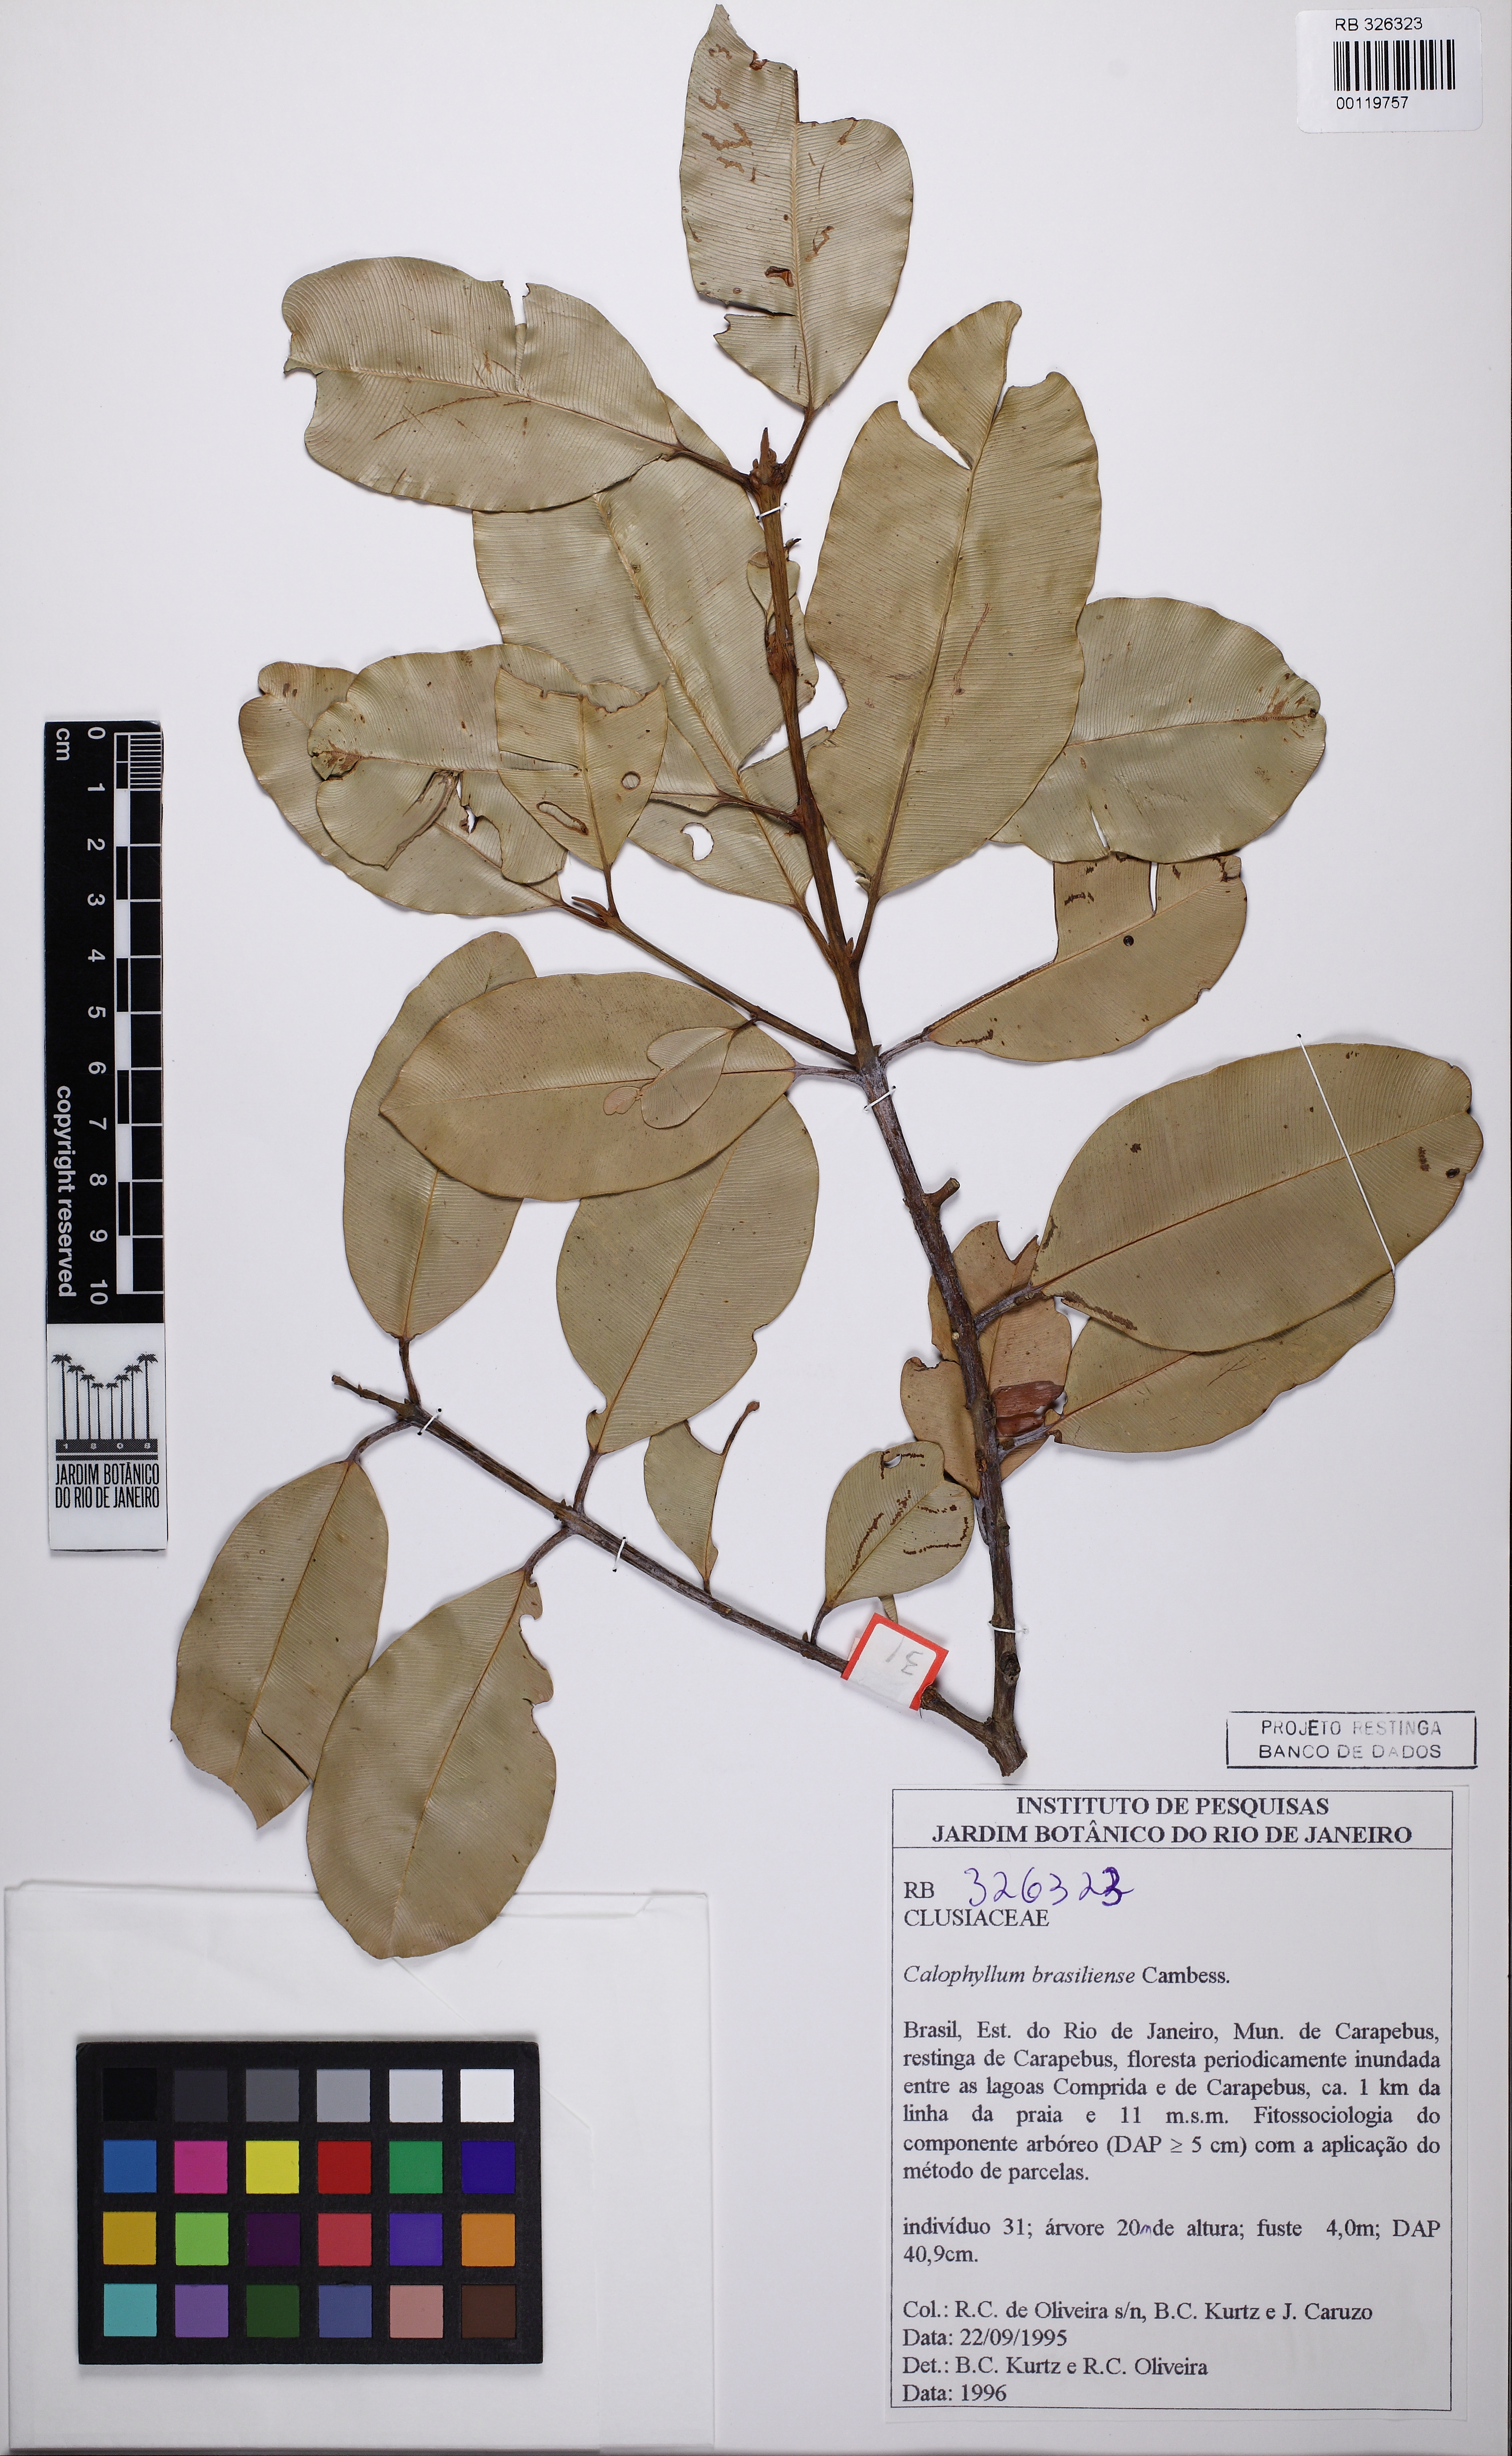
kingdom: Plantae
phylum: Tracheophyta
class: Magnoliopsida
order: Malpighiales
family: Calophyllaceae
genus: Calophyllum
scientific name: Calophyllum brasiliense
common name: Santa maria
